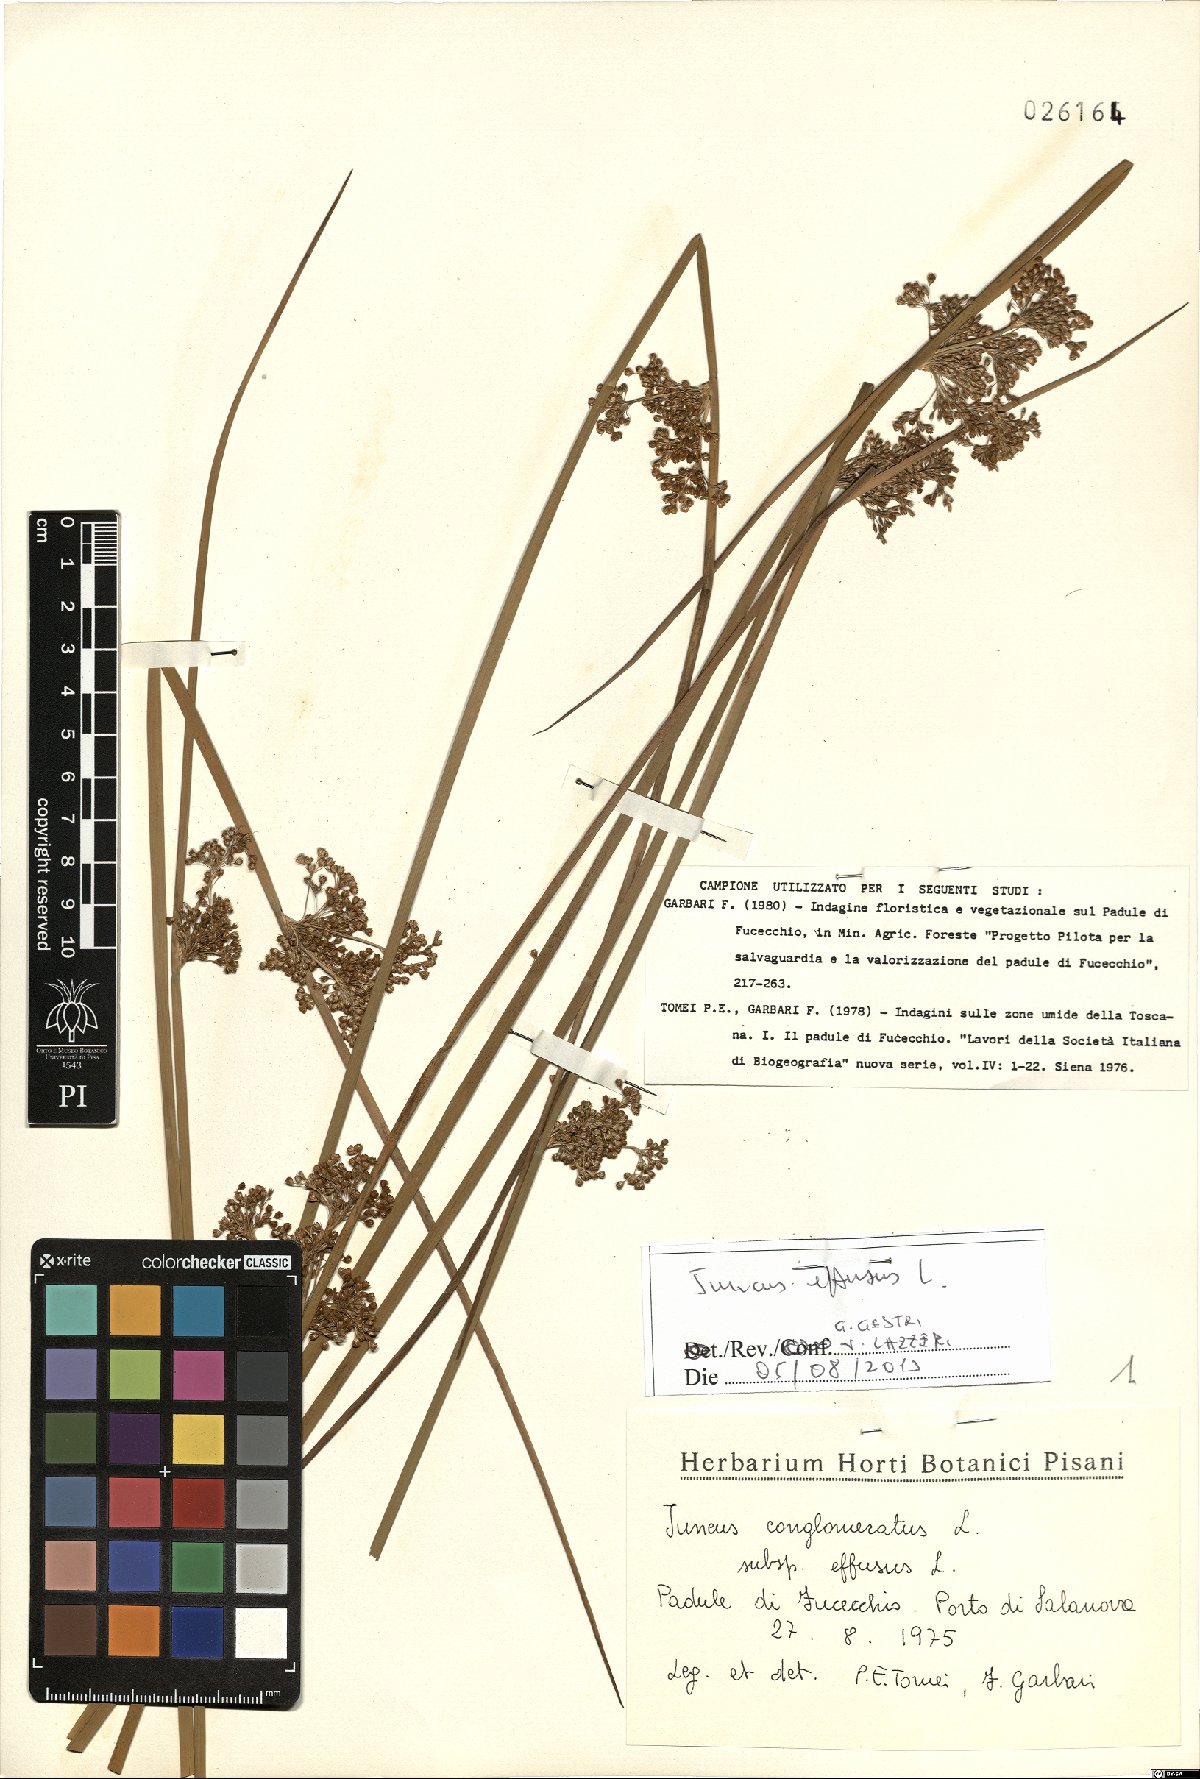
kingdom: Plantae
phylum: Tracheophyta
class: Liliopsida
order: Poales
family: Juncaceae
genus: Juncus
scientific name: Juncus effusus
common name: Soft rush
